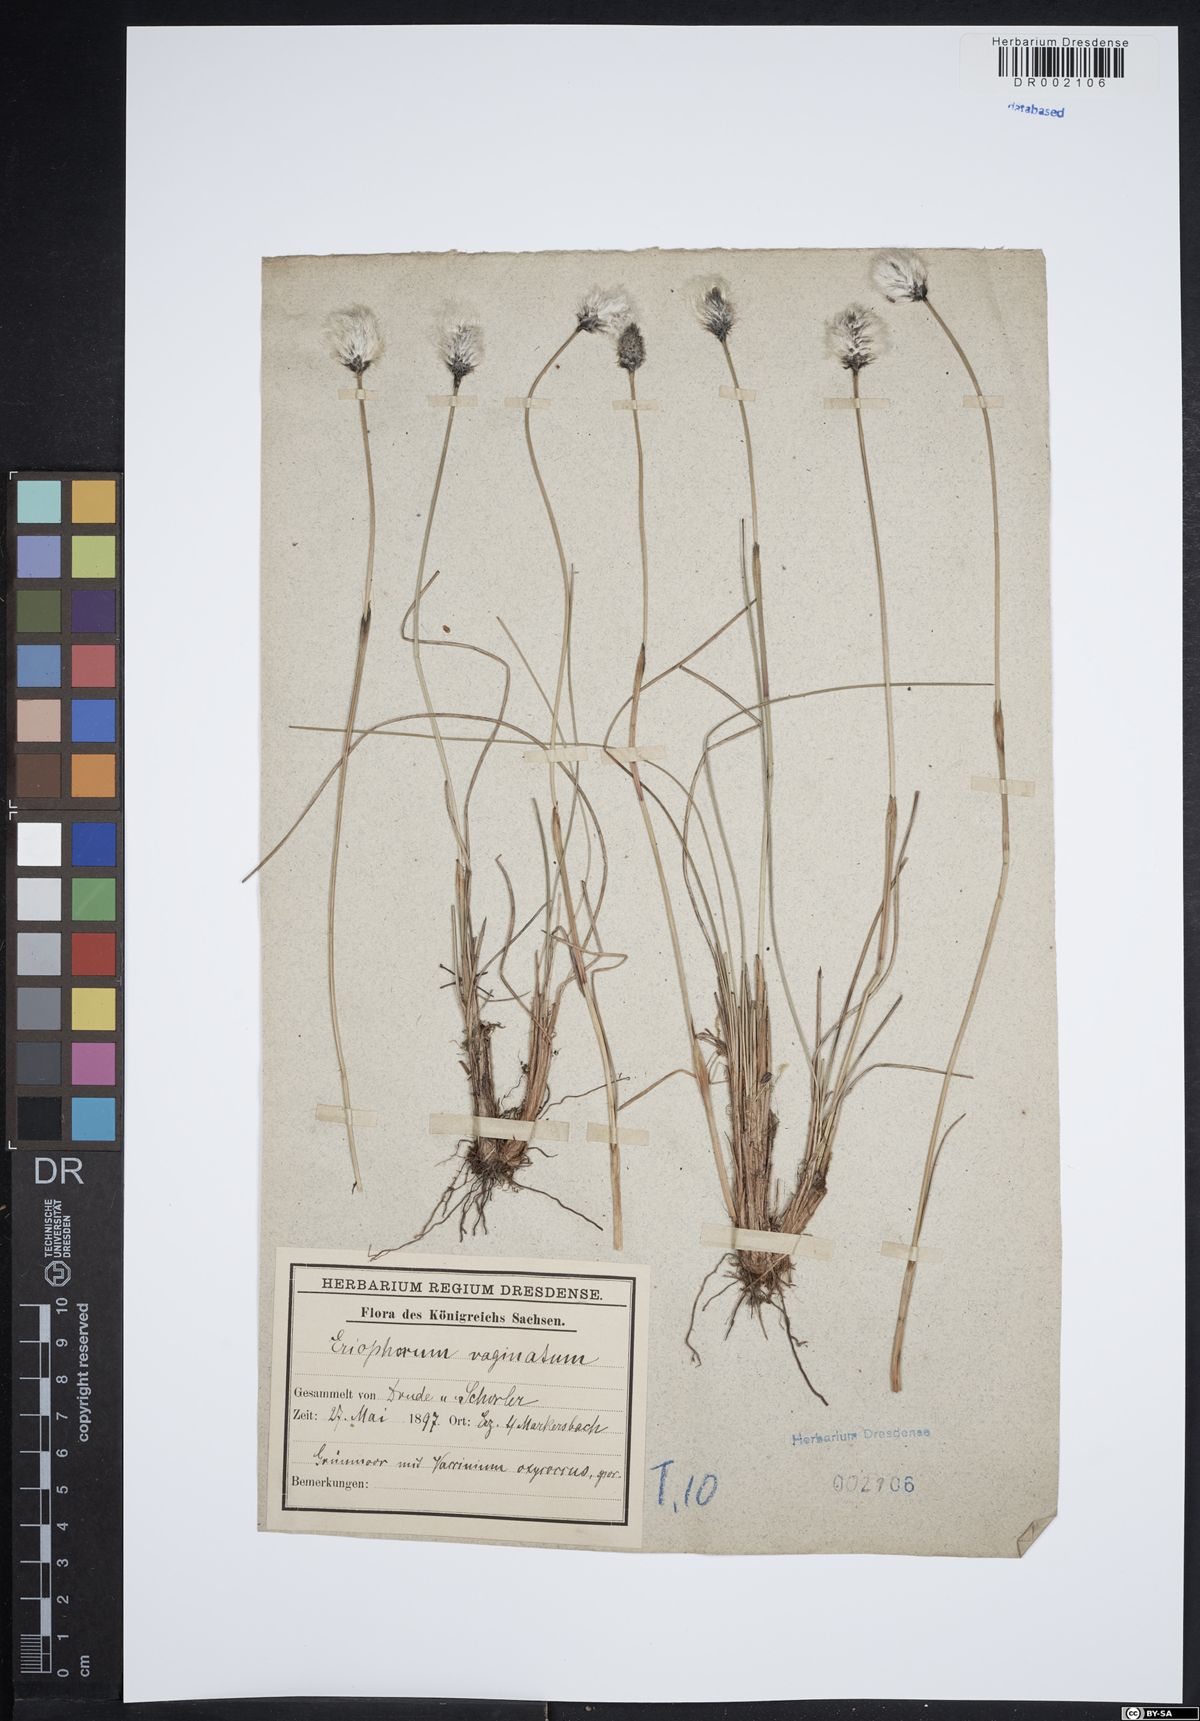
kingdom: Plantae
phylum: Tracheophyta
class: Liliopsida
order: Poales
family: Cyperaceae
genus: Eriophorum
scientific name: Eriophorum vaginatum
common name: Hare's-tail cottongrass
